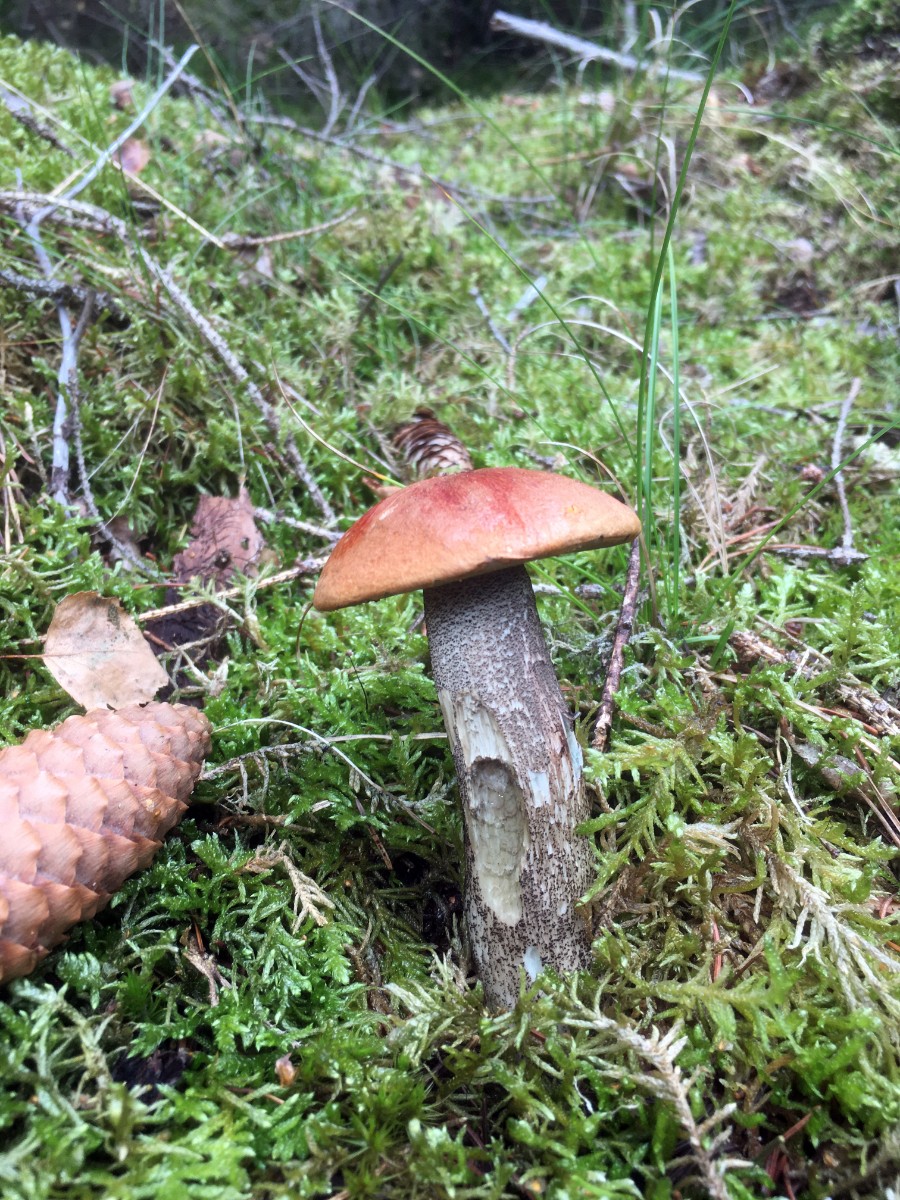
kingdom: Fungi
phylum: Basidiomycota
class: Agaricomycetes
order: Boletales
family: Boletaceae
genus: Leccinum
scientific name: Leccinum versipelle
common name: orange skælrørhat
